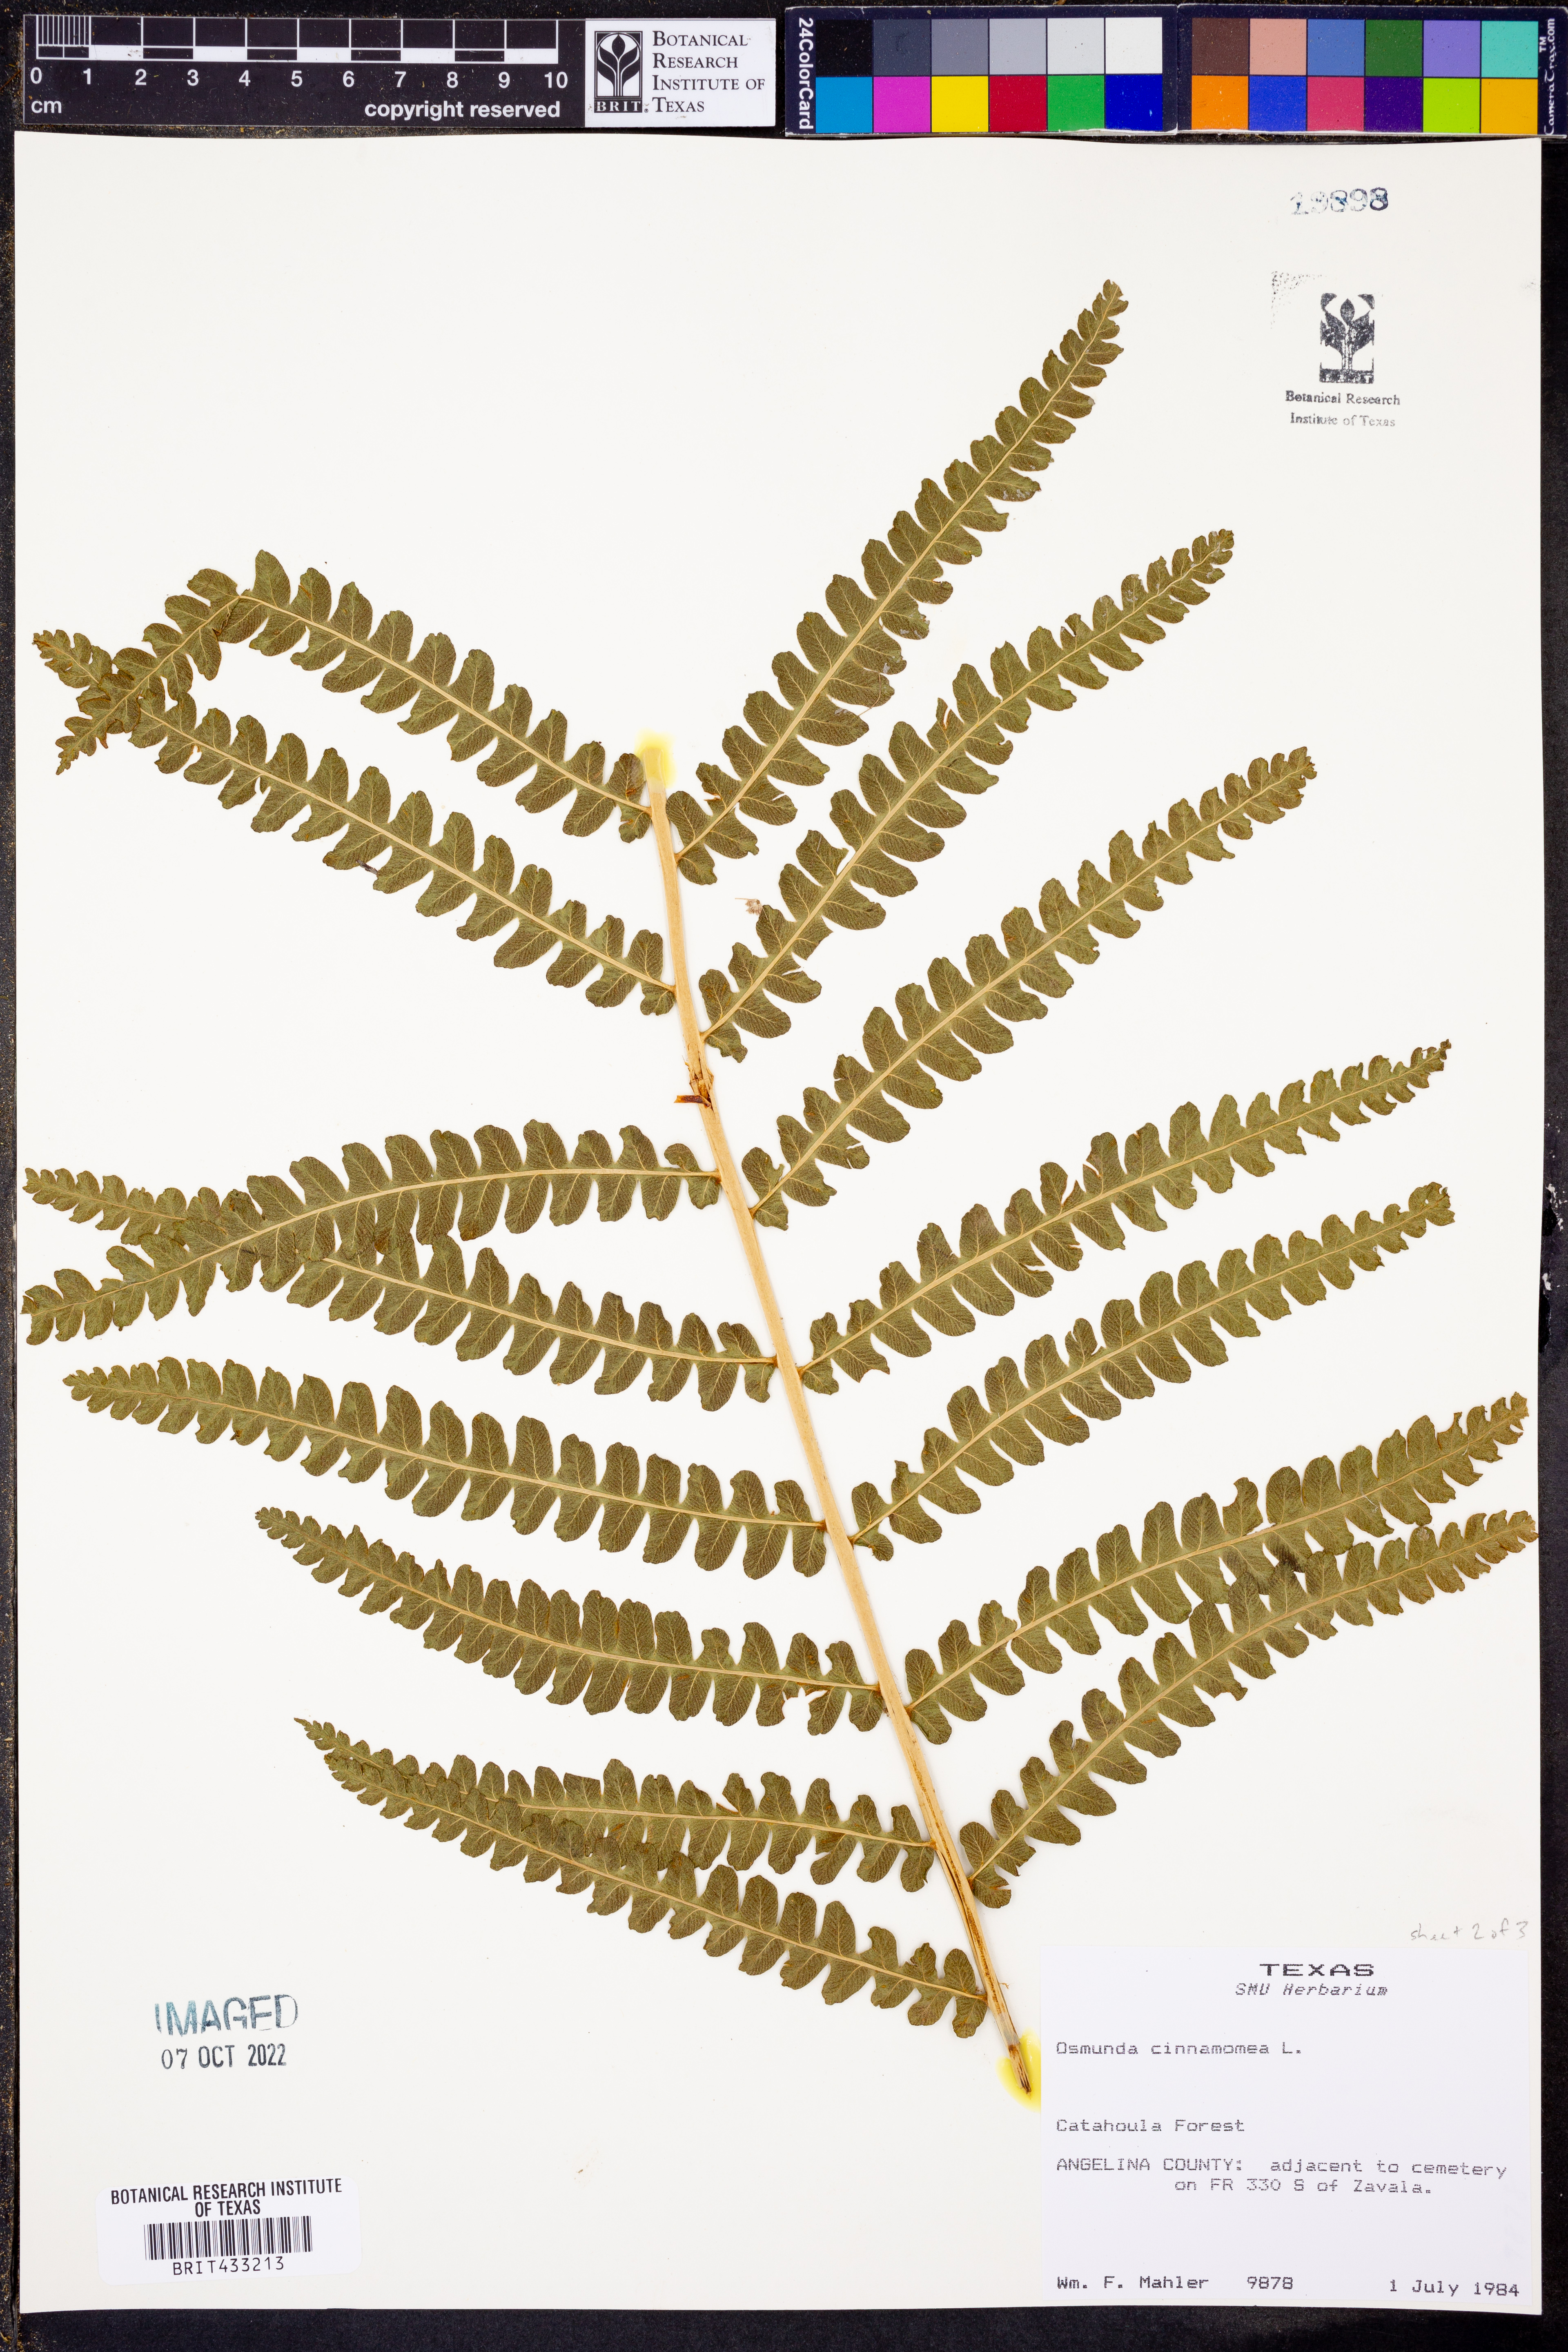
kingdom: Plantae
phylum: Tracheophyta
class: Polypodiopsida
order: Osmundales
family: Osmundaceae
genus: Osmundastrum
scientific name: Osmundastrum cinnamomeum
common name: Cinnamon fern
